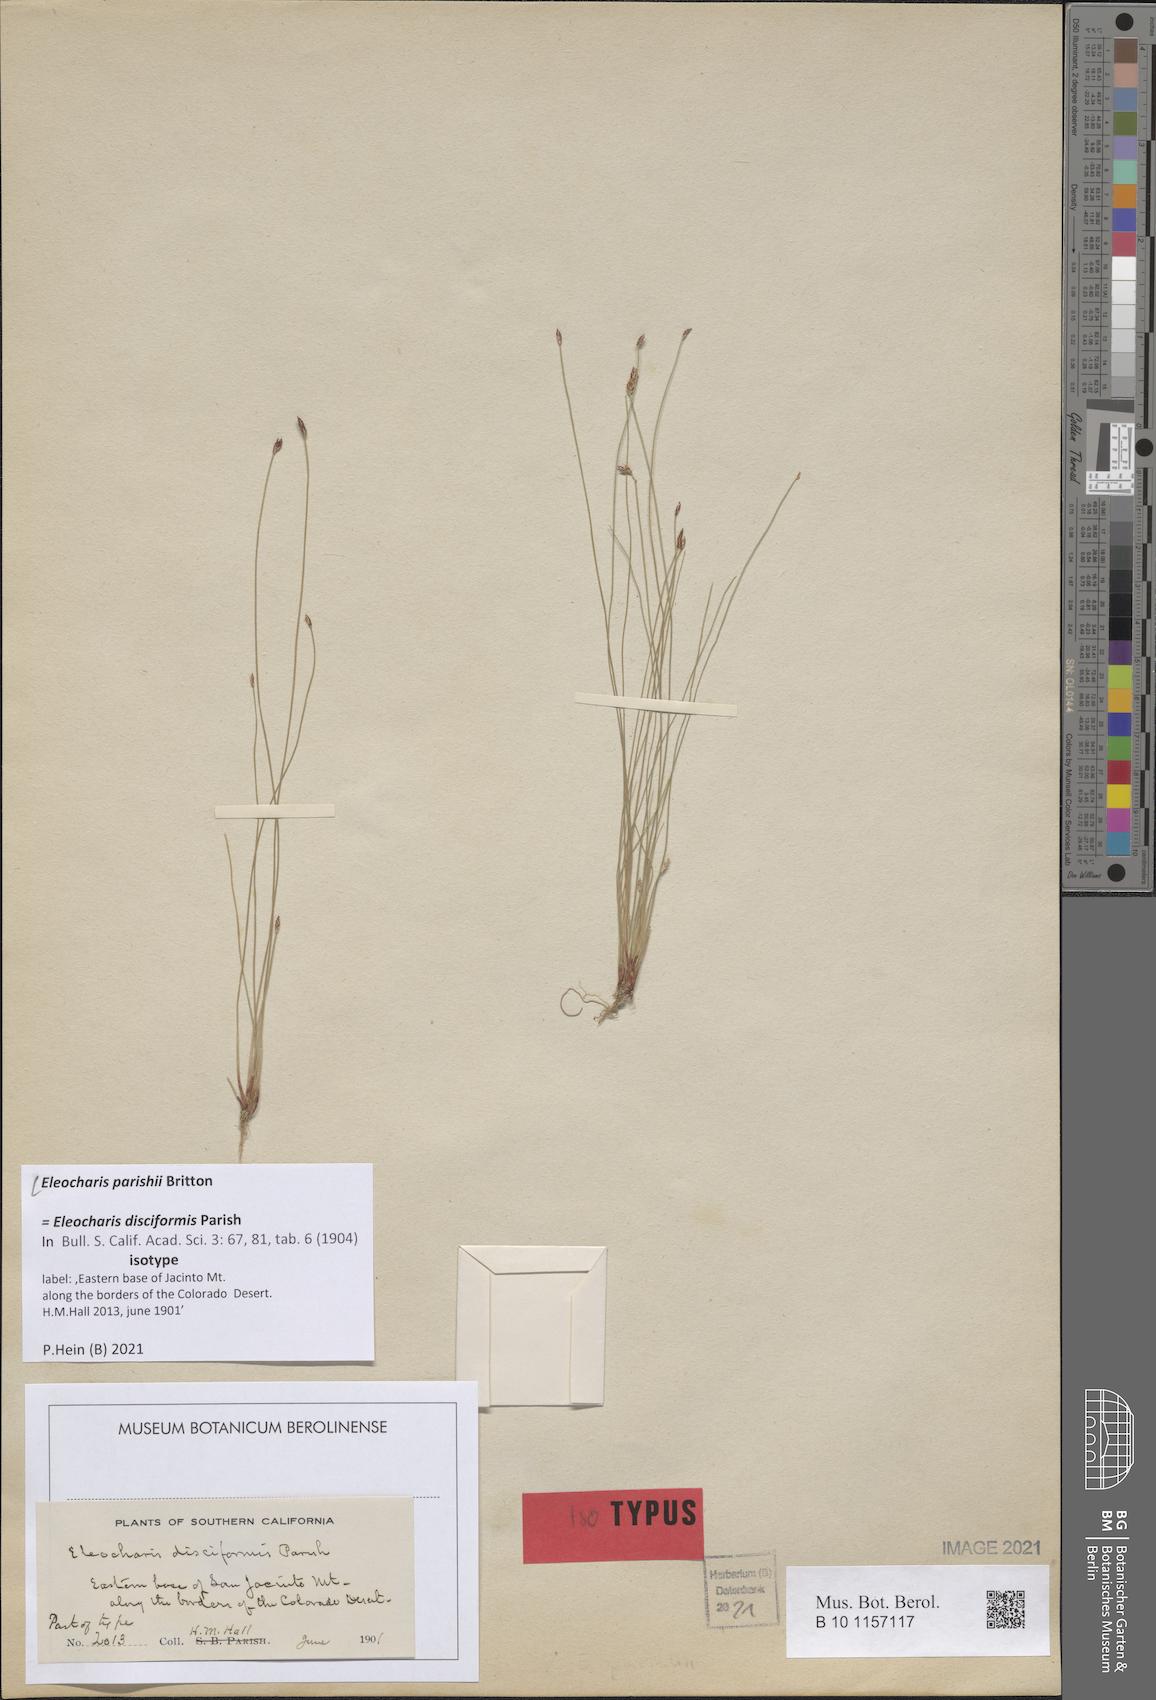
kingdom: Plantae
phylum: Tracheophyta
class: Liliopsida
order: Poales
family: Cyperaceae
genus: Eleocharis
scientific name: Eleocharis parishii
